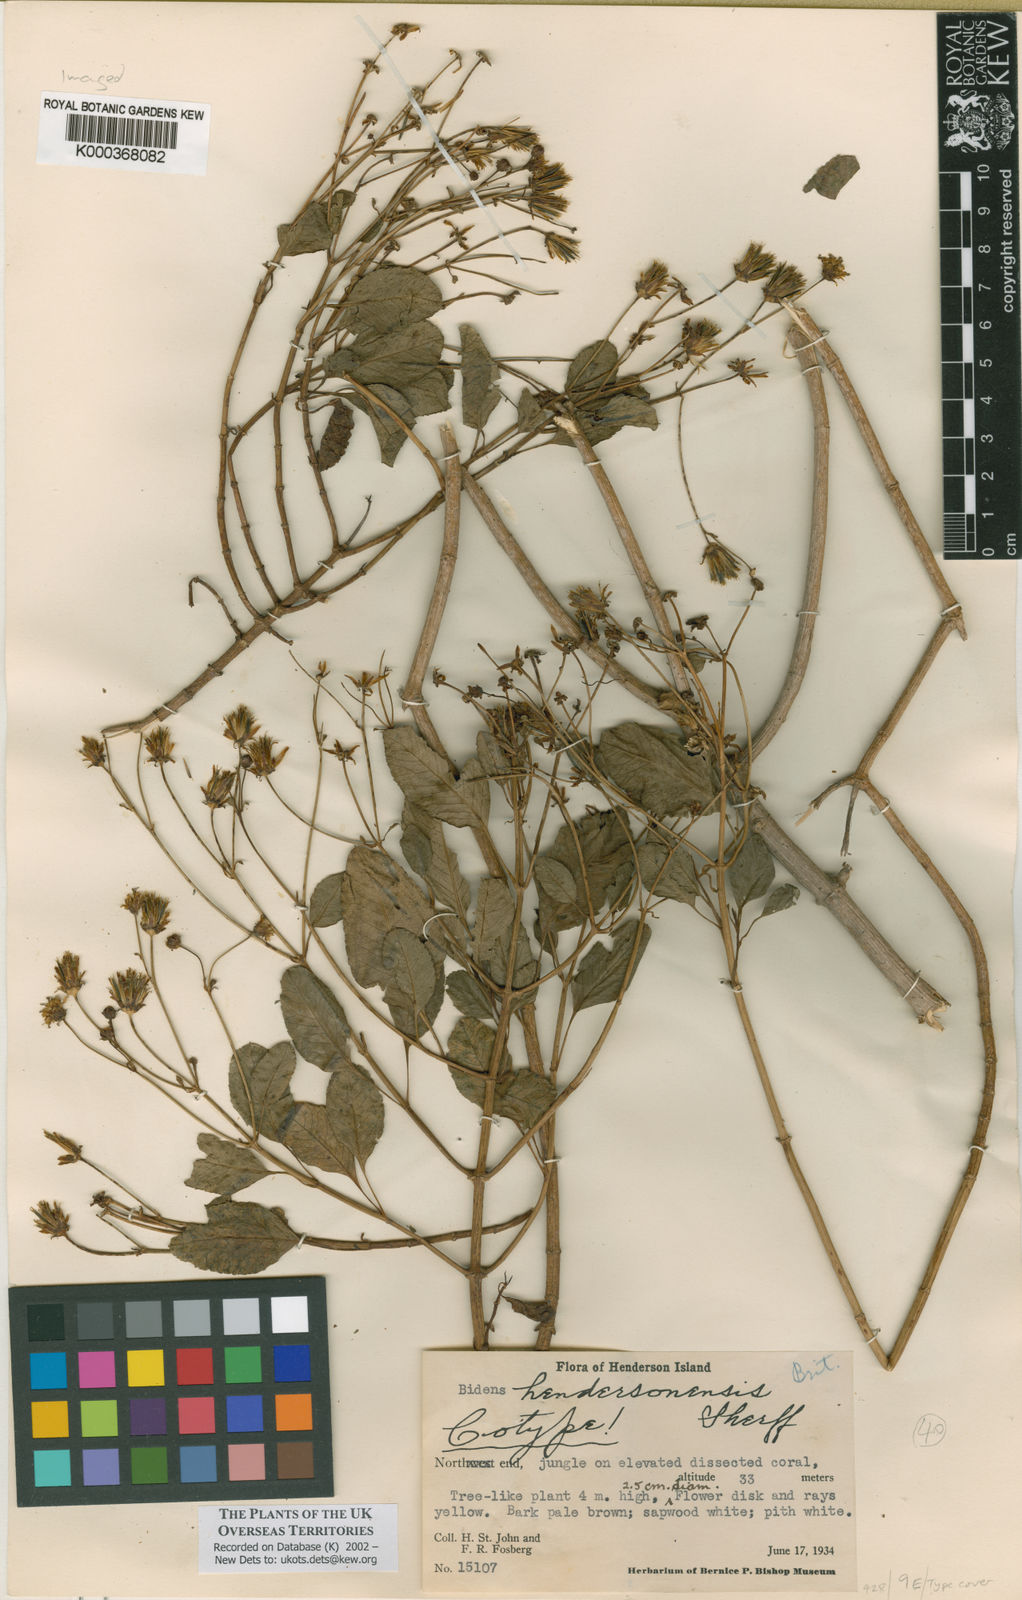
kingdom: Plantae
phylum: Tracheophyta
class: Magnoliopsida
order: Asterales
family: Asteraceae
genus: Bidens
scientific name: Bidens hendersonensis
